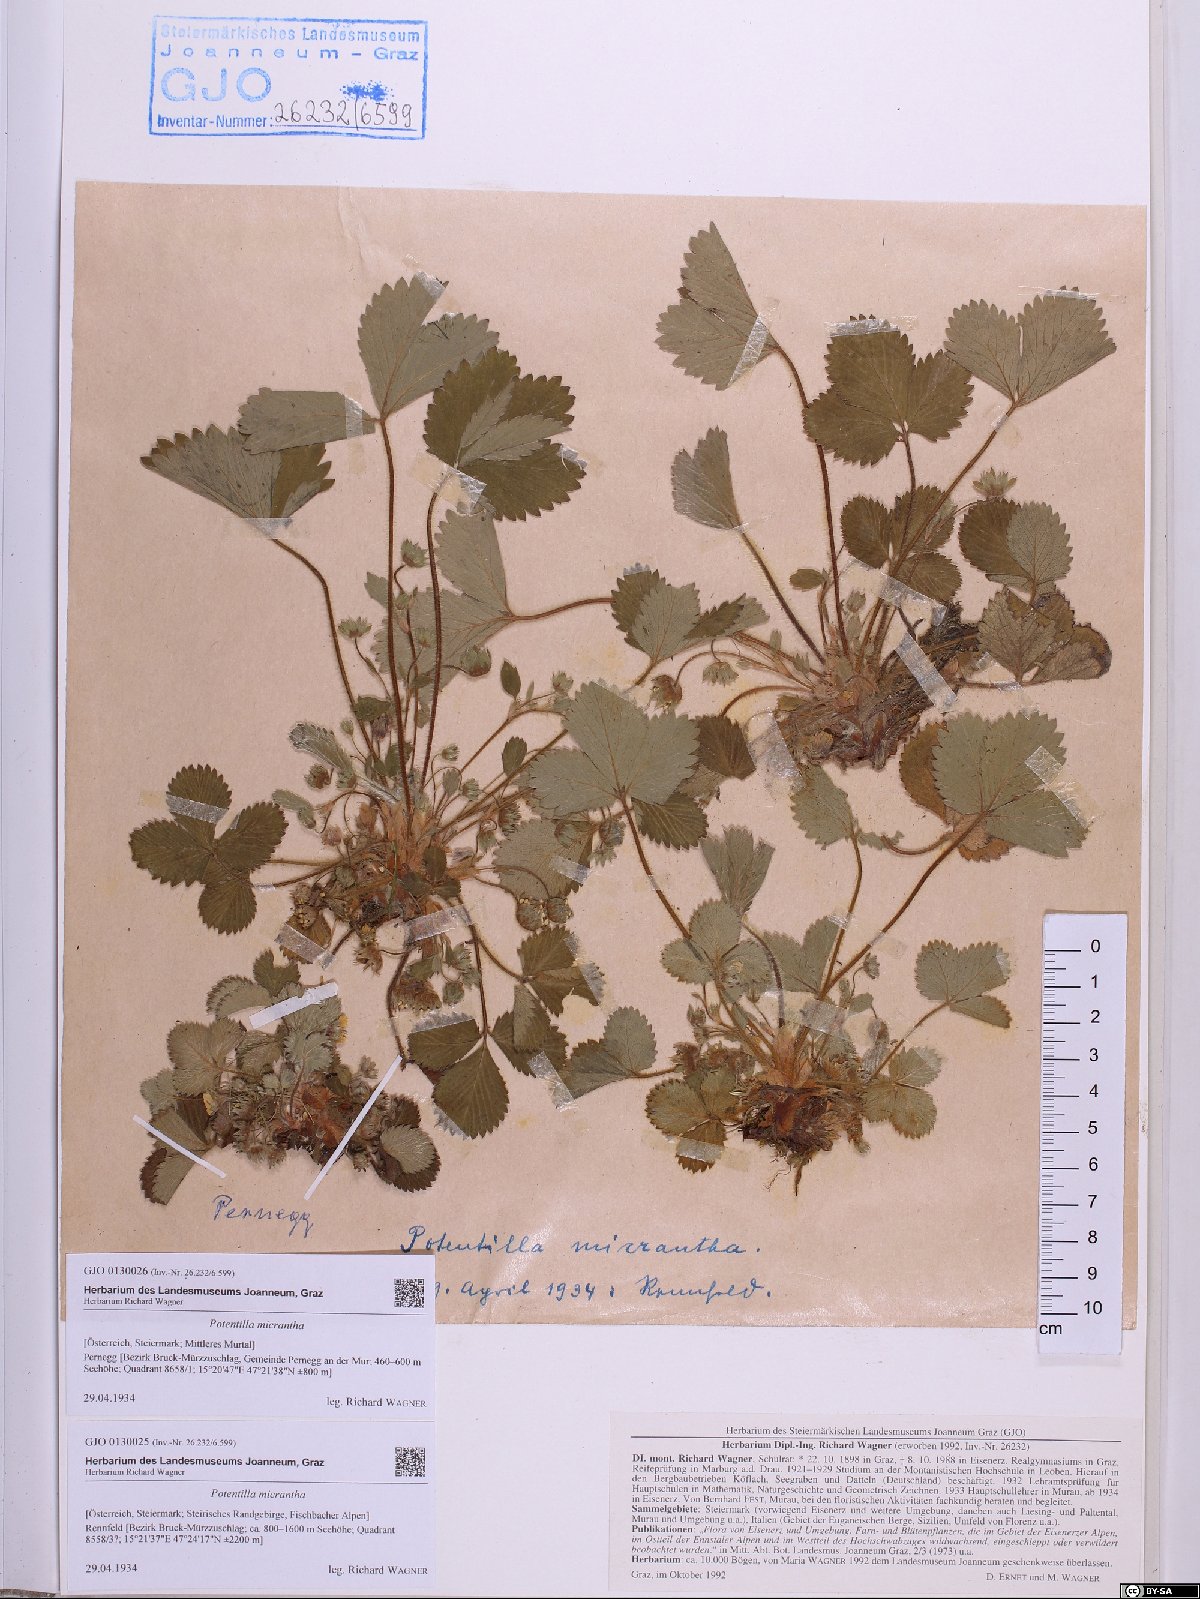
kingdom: Plantae
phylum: Tracheophyta
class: Magnoliopsida
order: Rosales
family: Rosaceae
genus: Potentilla
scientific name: Potentilla micrantha
